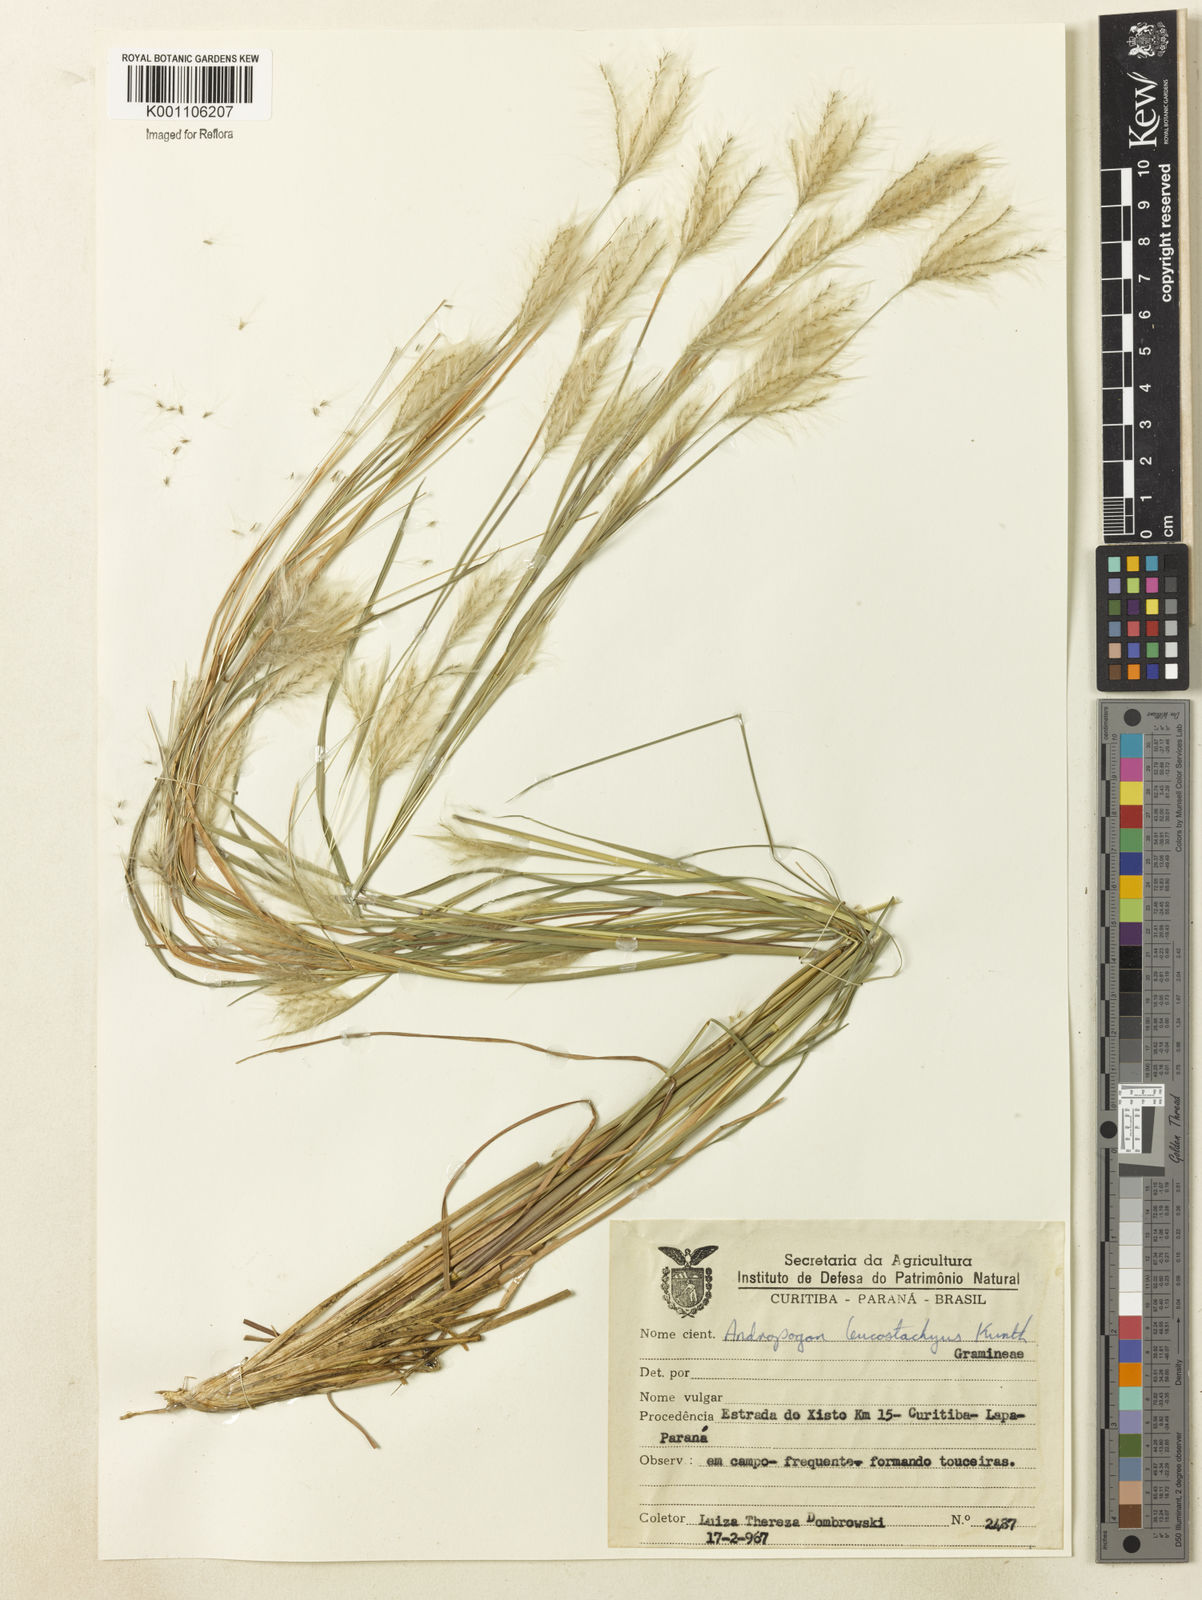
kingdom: Plantae
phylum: Tracheophyta
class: Liliopsida
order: Poales
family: Poaceae
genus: Andropogon
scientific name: Andropogon leucostachyus
